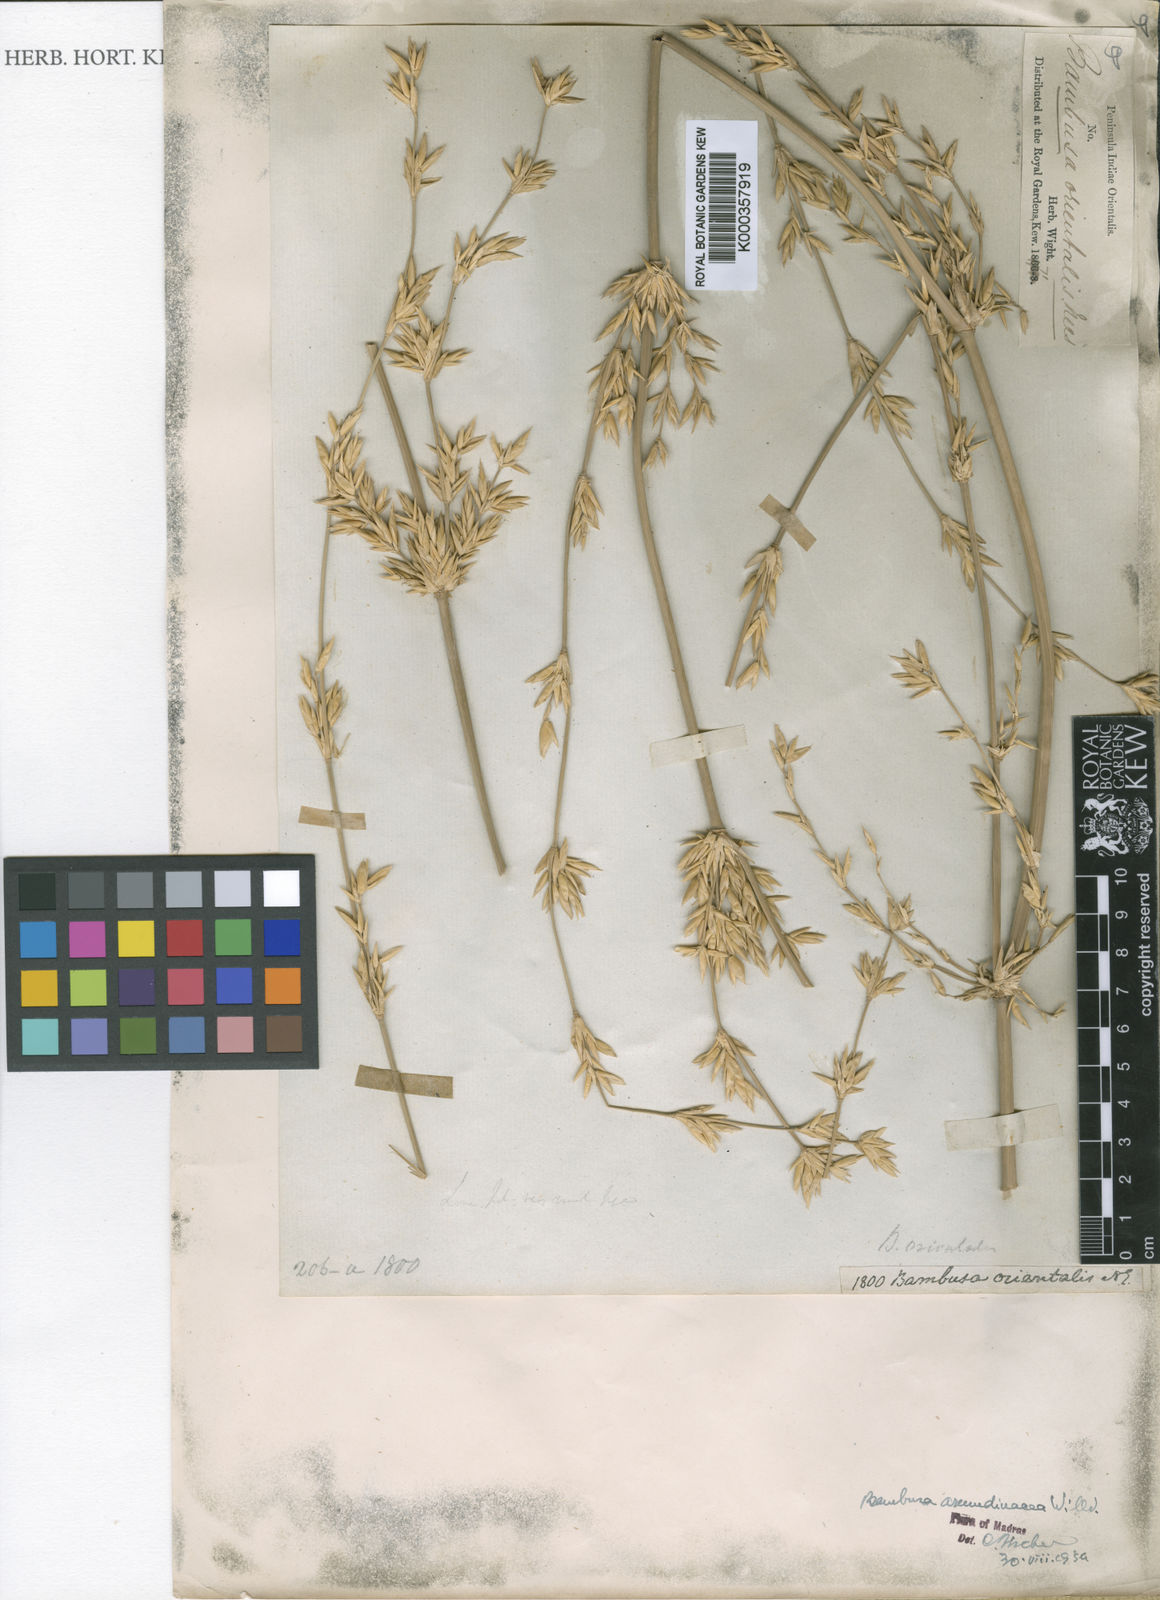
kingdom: Plantae
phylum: Tracheophyta
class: Liliopsida
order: Poales
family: Poaceae
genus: Bambusa
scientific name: Bambusa bambos
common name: Indian thorny bamboo
